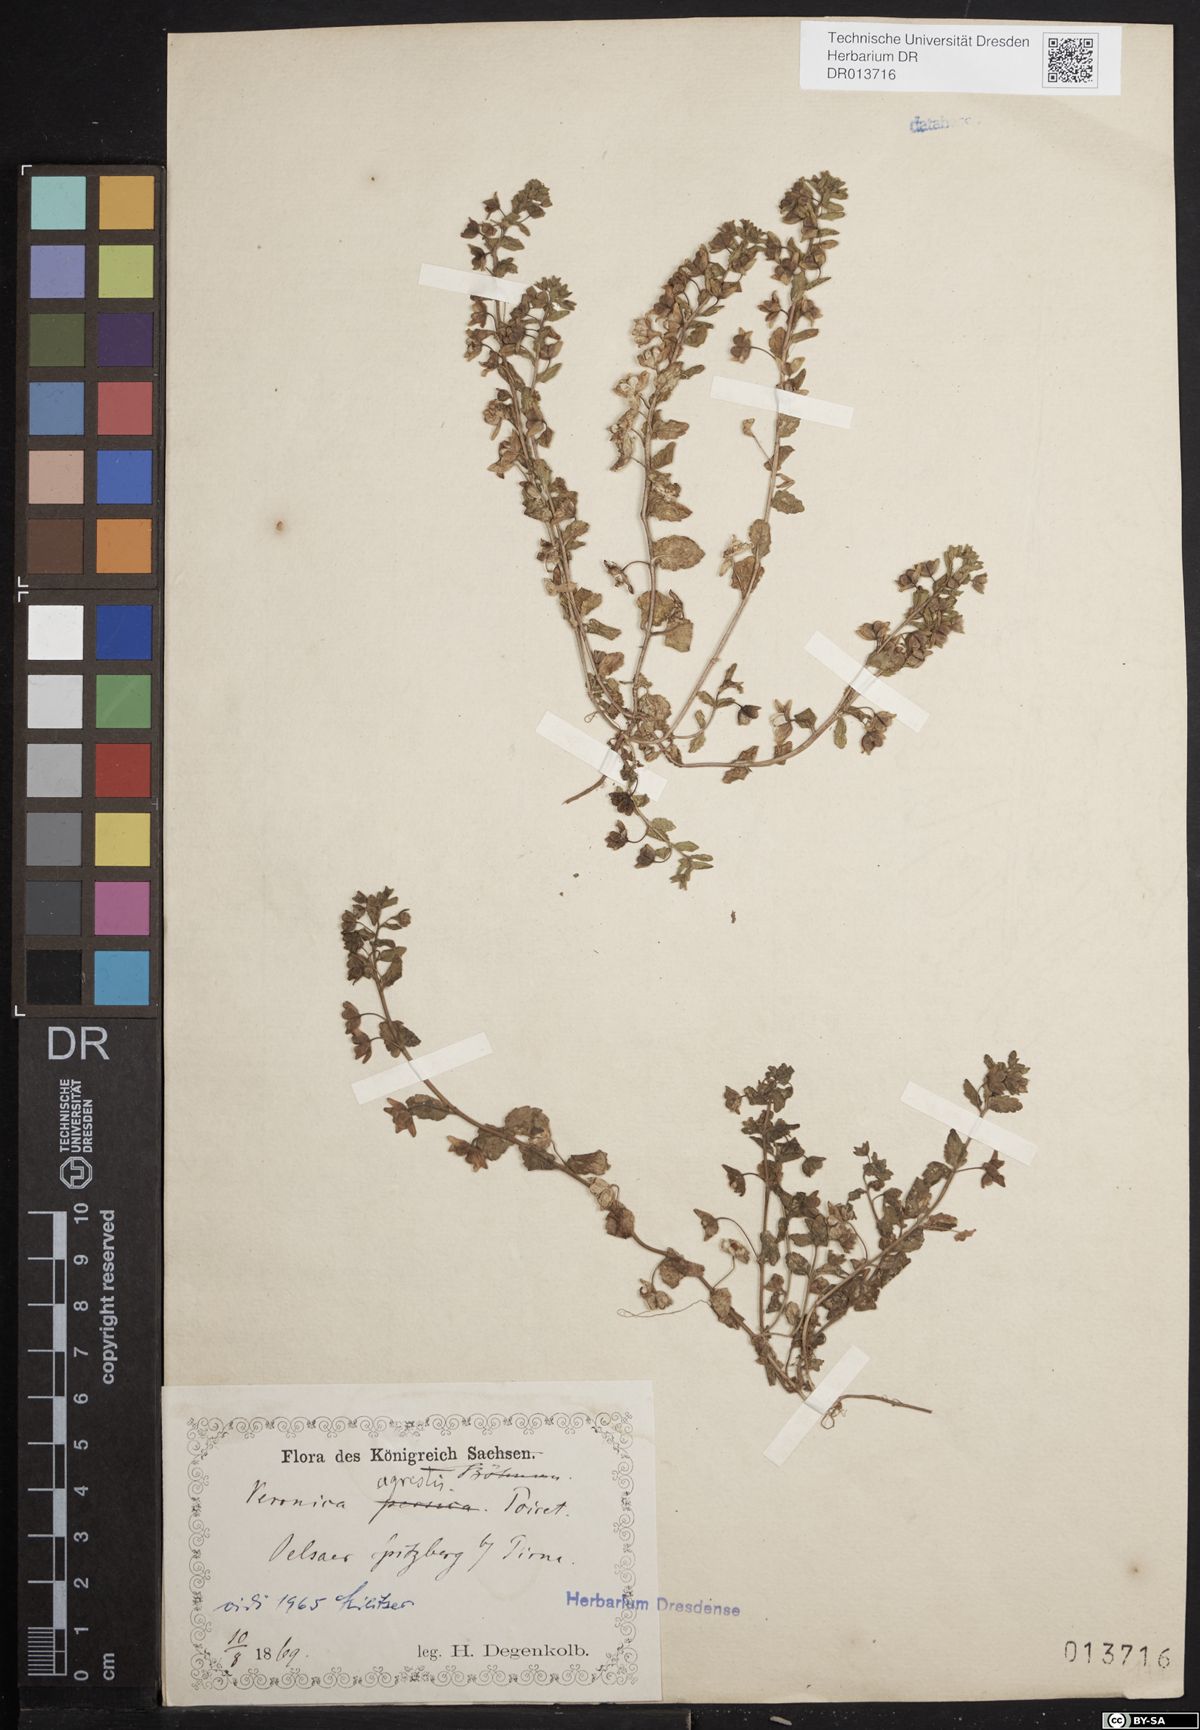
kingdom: Plantae
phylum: Tracheophyta
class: Magnoliopsida
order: Lamiales
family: Plantaginaceae
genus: Veronica
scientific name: Veronica agrestis
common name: Green field-speedwell
